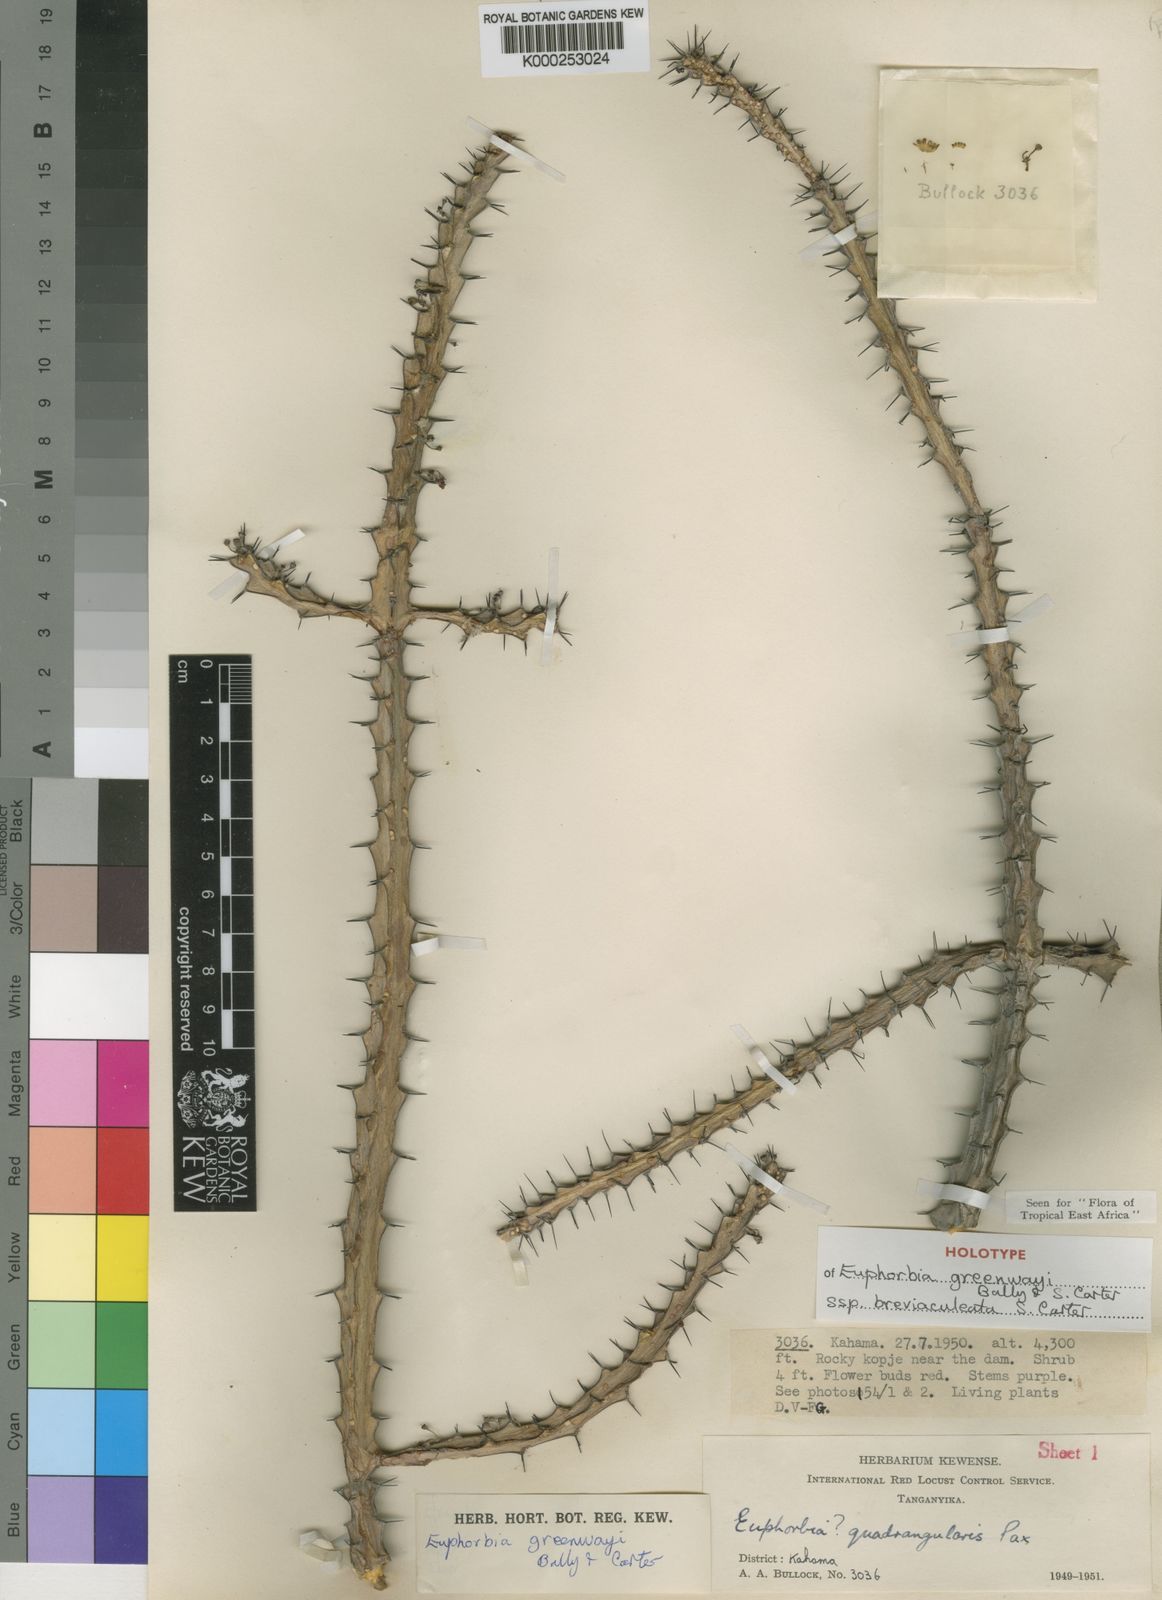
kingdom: Plantae
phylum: Tracheophyta
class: Magnoliopsida
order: Malpighiales
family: Euphorbiaceae
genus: Euphorbia
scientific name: Euphorbia greenwayi
